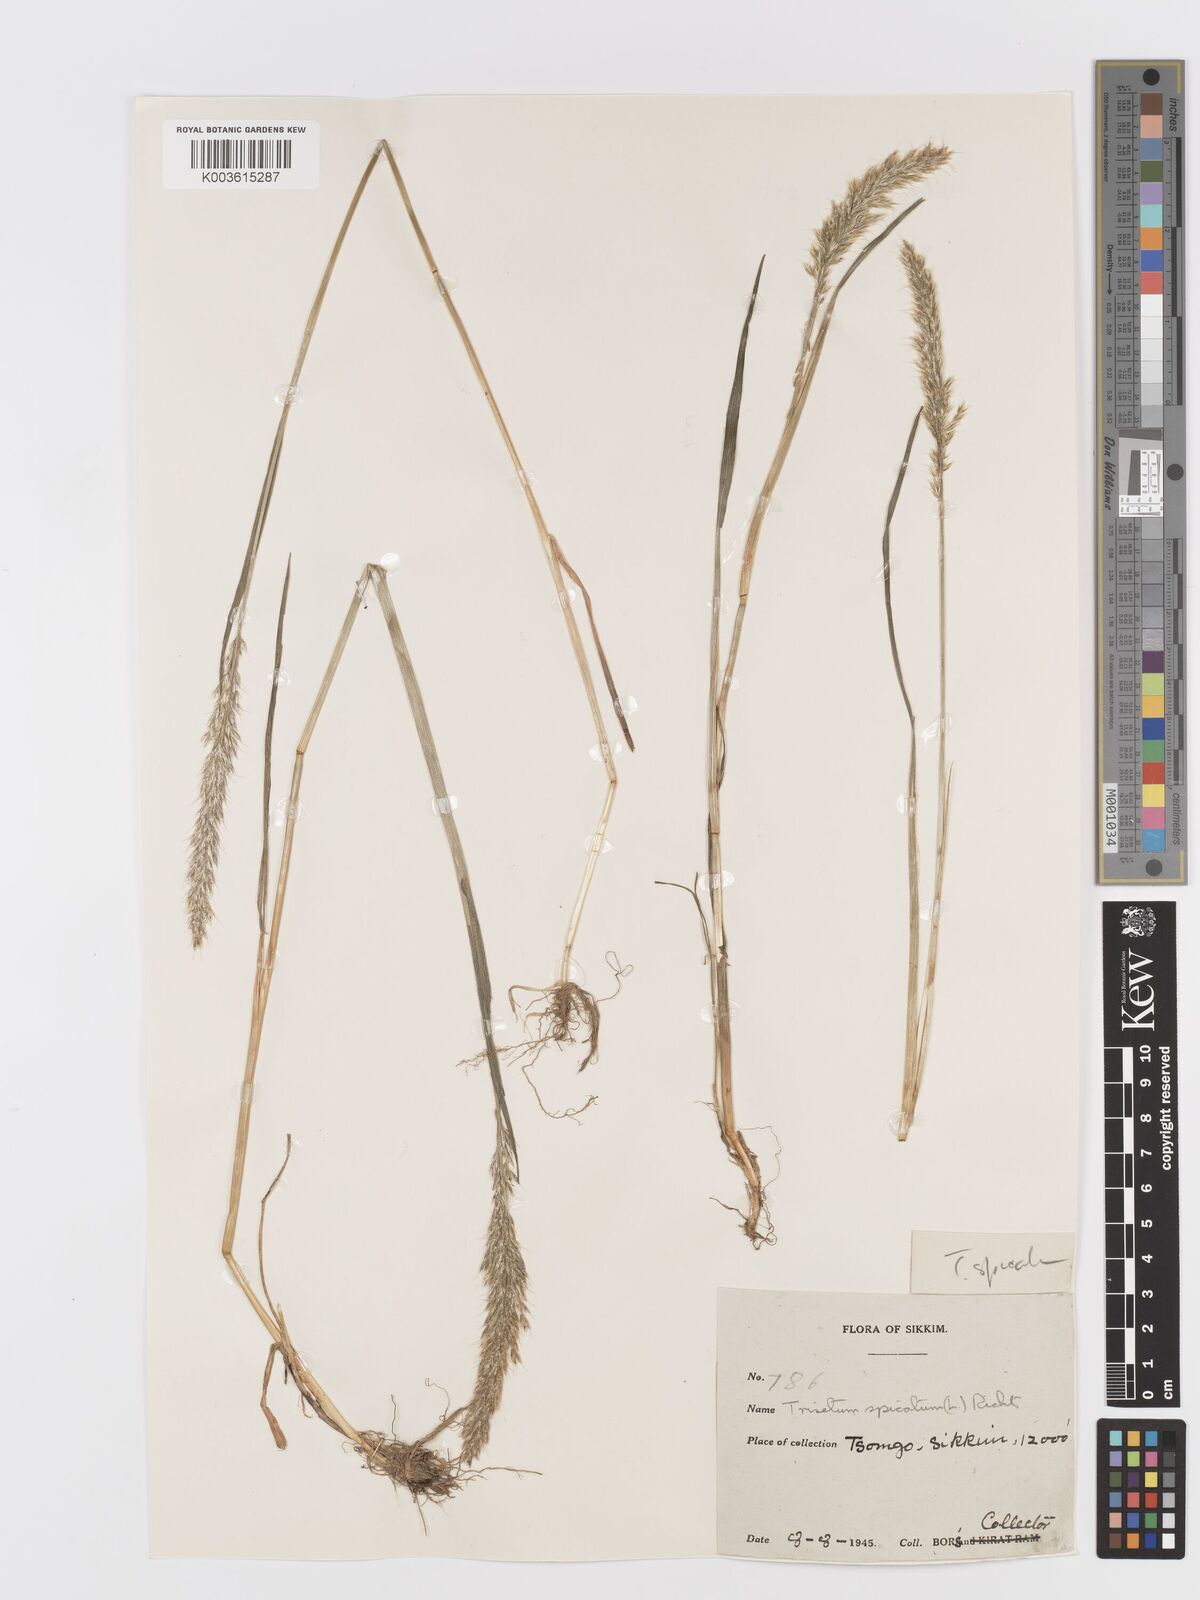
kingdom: Plantae
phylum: Tracheophyta
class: Liliopsida
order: Poales
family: Poaceae
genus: Koeleria
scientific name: Koeleria spicata
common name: Mountain trisetum
